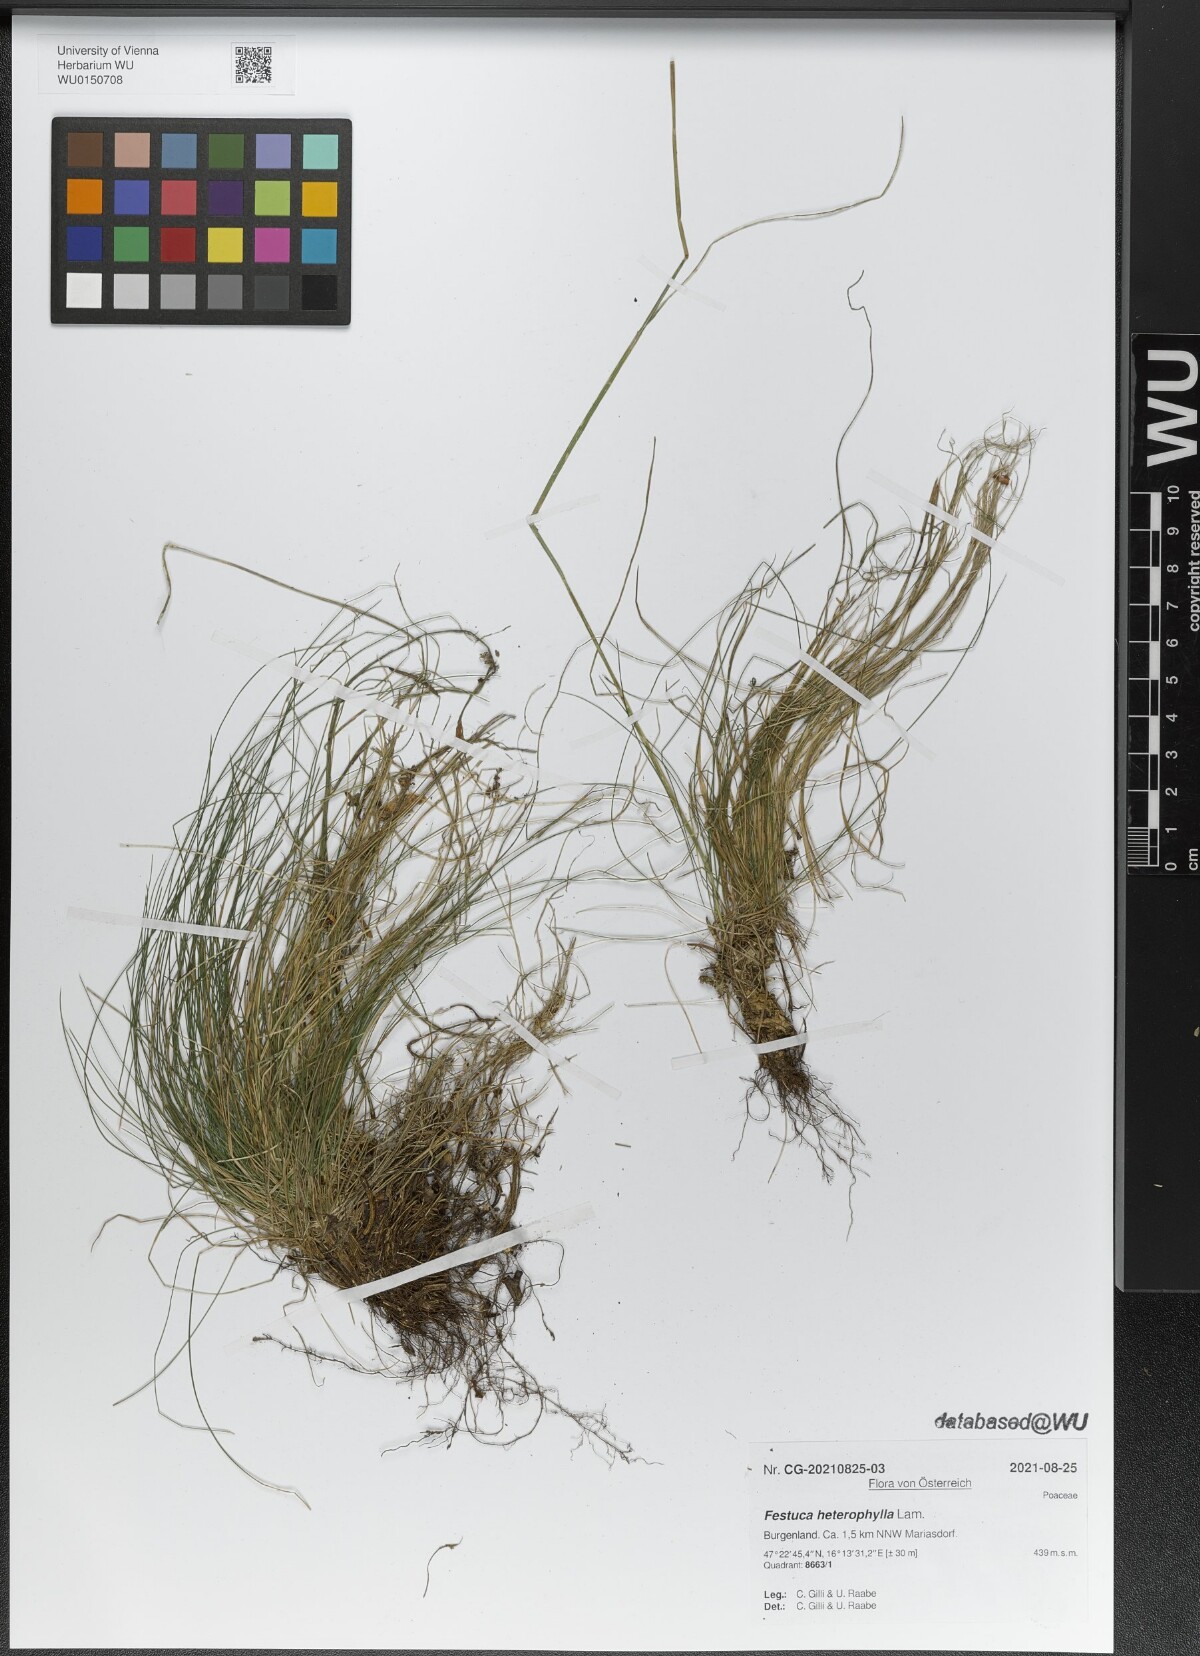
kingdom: Plantae
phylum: Tracheophyta
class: Liliopsida
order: Poales
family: Poaceae
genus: Festuca
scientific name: Festuca heterophylla
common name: Various-leaved fescue
